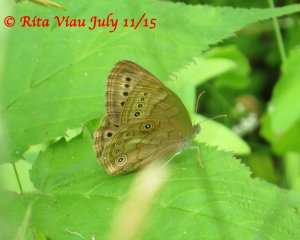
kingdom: Animalia
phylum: Arthropoda
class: Insecta
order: Lepidoptera
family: Nymphalidae
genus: Lethe
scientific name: Lethe eurydice
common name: Eyed Brown
